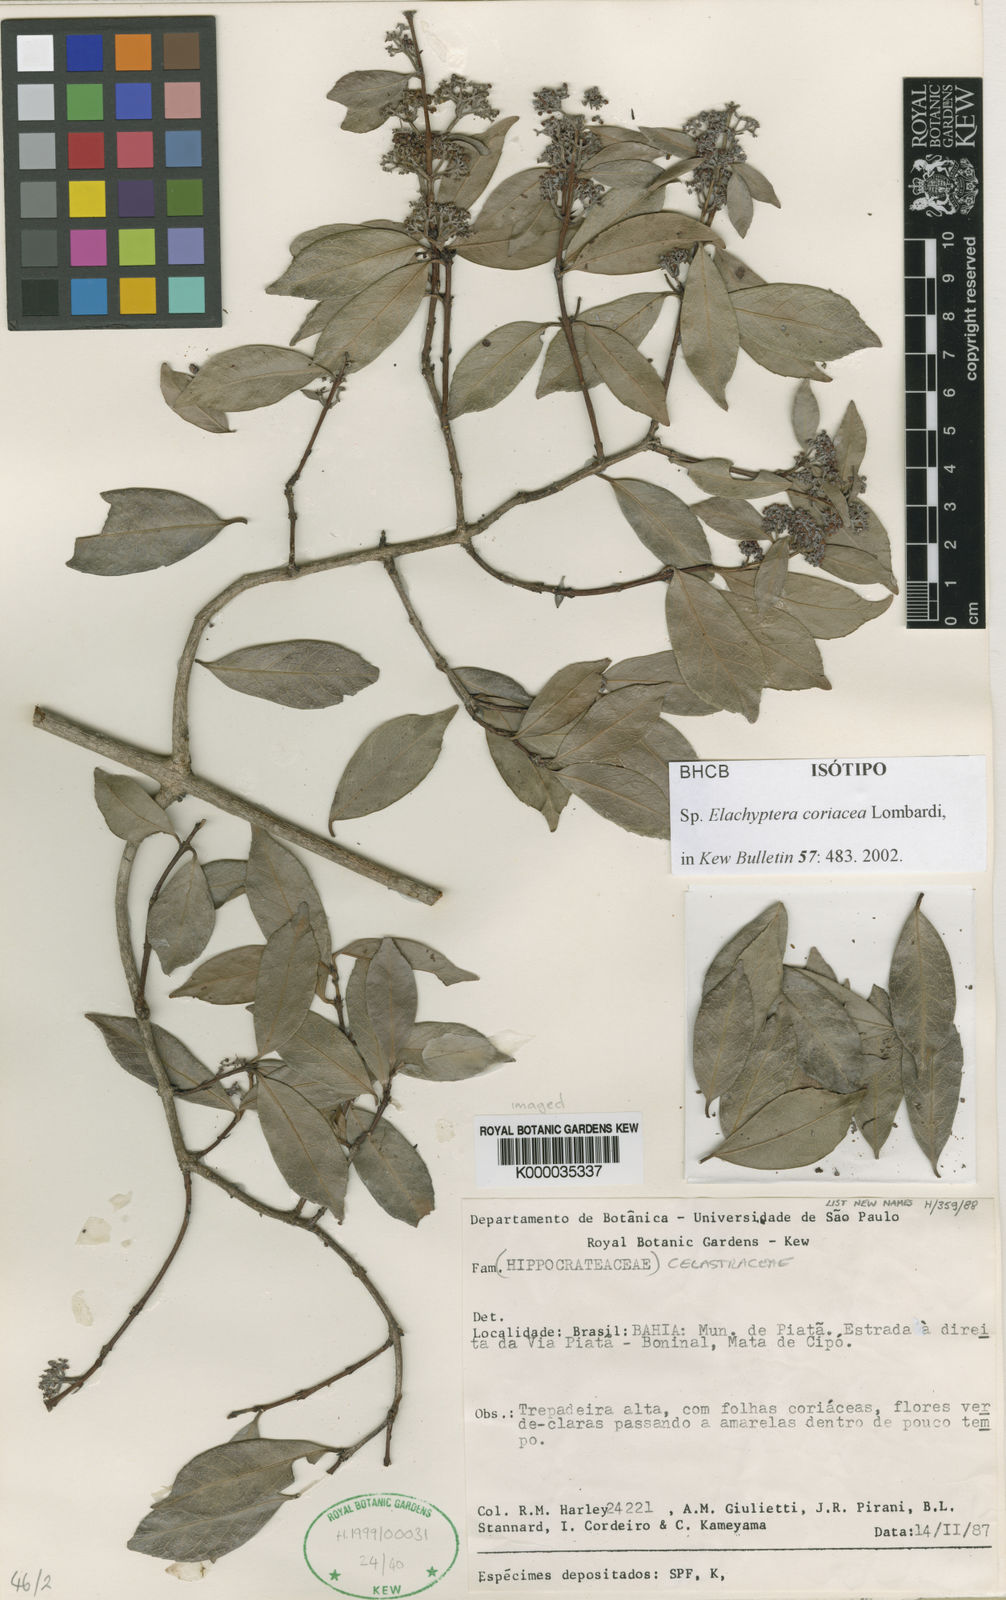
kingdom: Plantae
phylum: Tracheophyta
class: Magnoliopsida
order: Celastrales
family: Celastraceae
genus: Elachyptera
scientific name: Elachyptera coriacea
